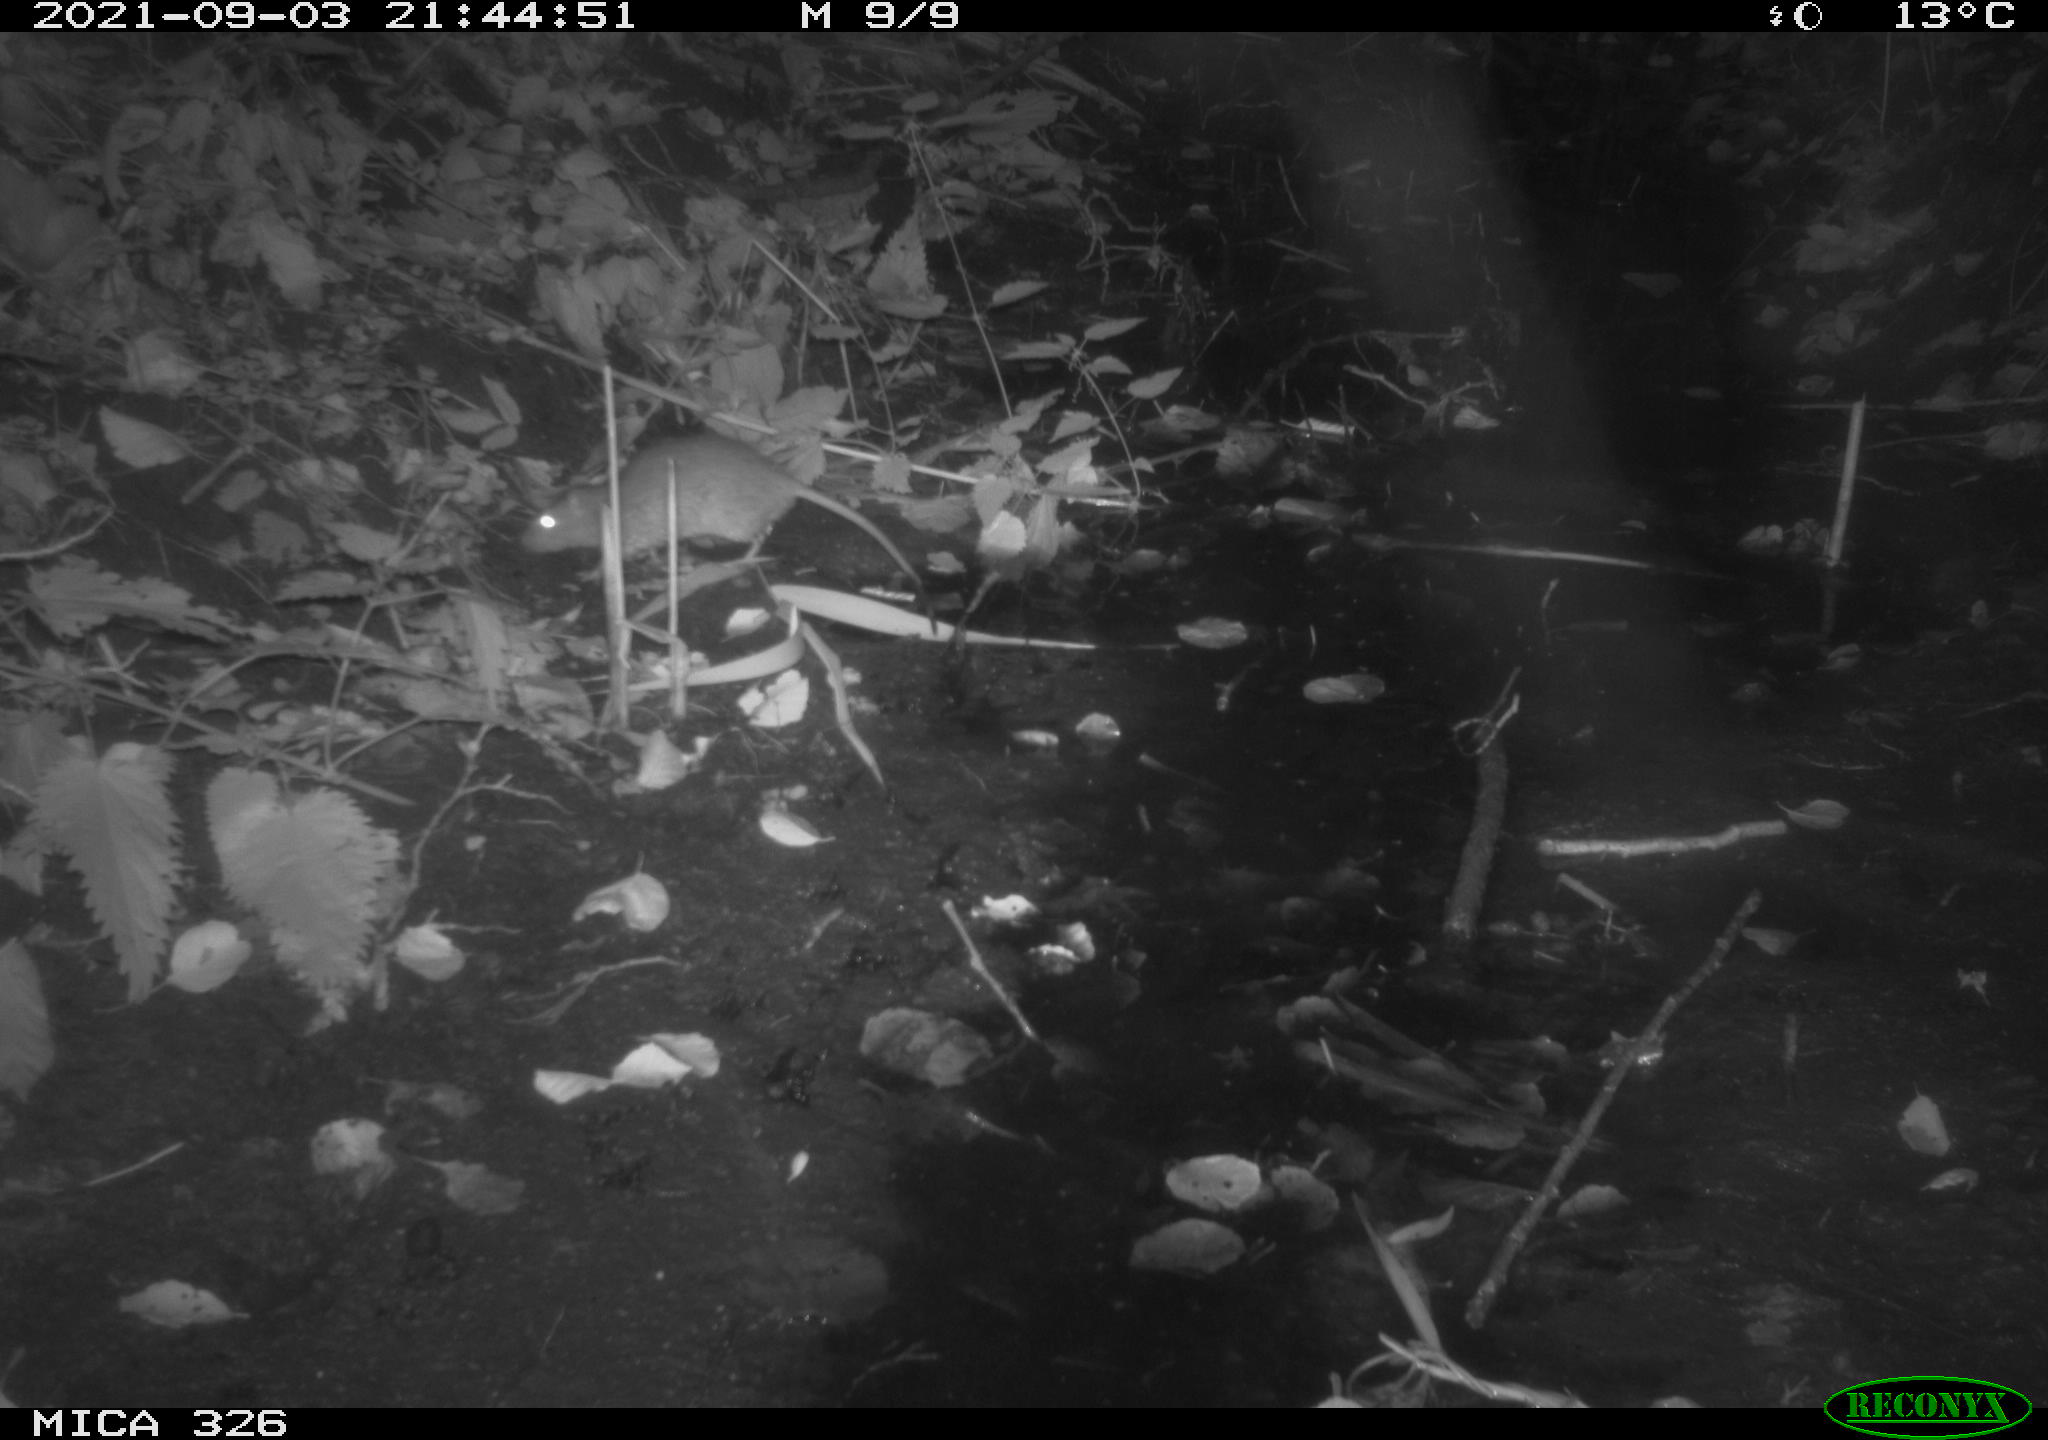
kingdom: Animalia
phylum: Chordata
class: Mammalia
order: Rodentia
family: Muridae
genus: Rattus
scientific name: Rattus norvegicus
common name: Brown rat
